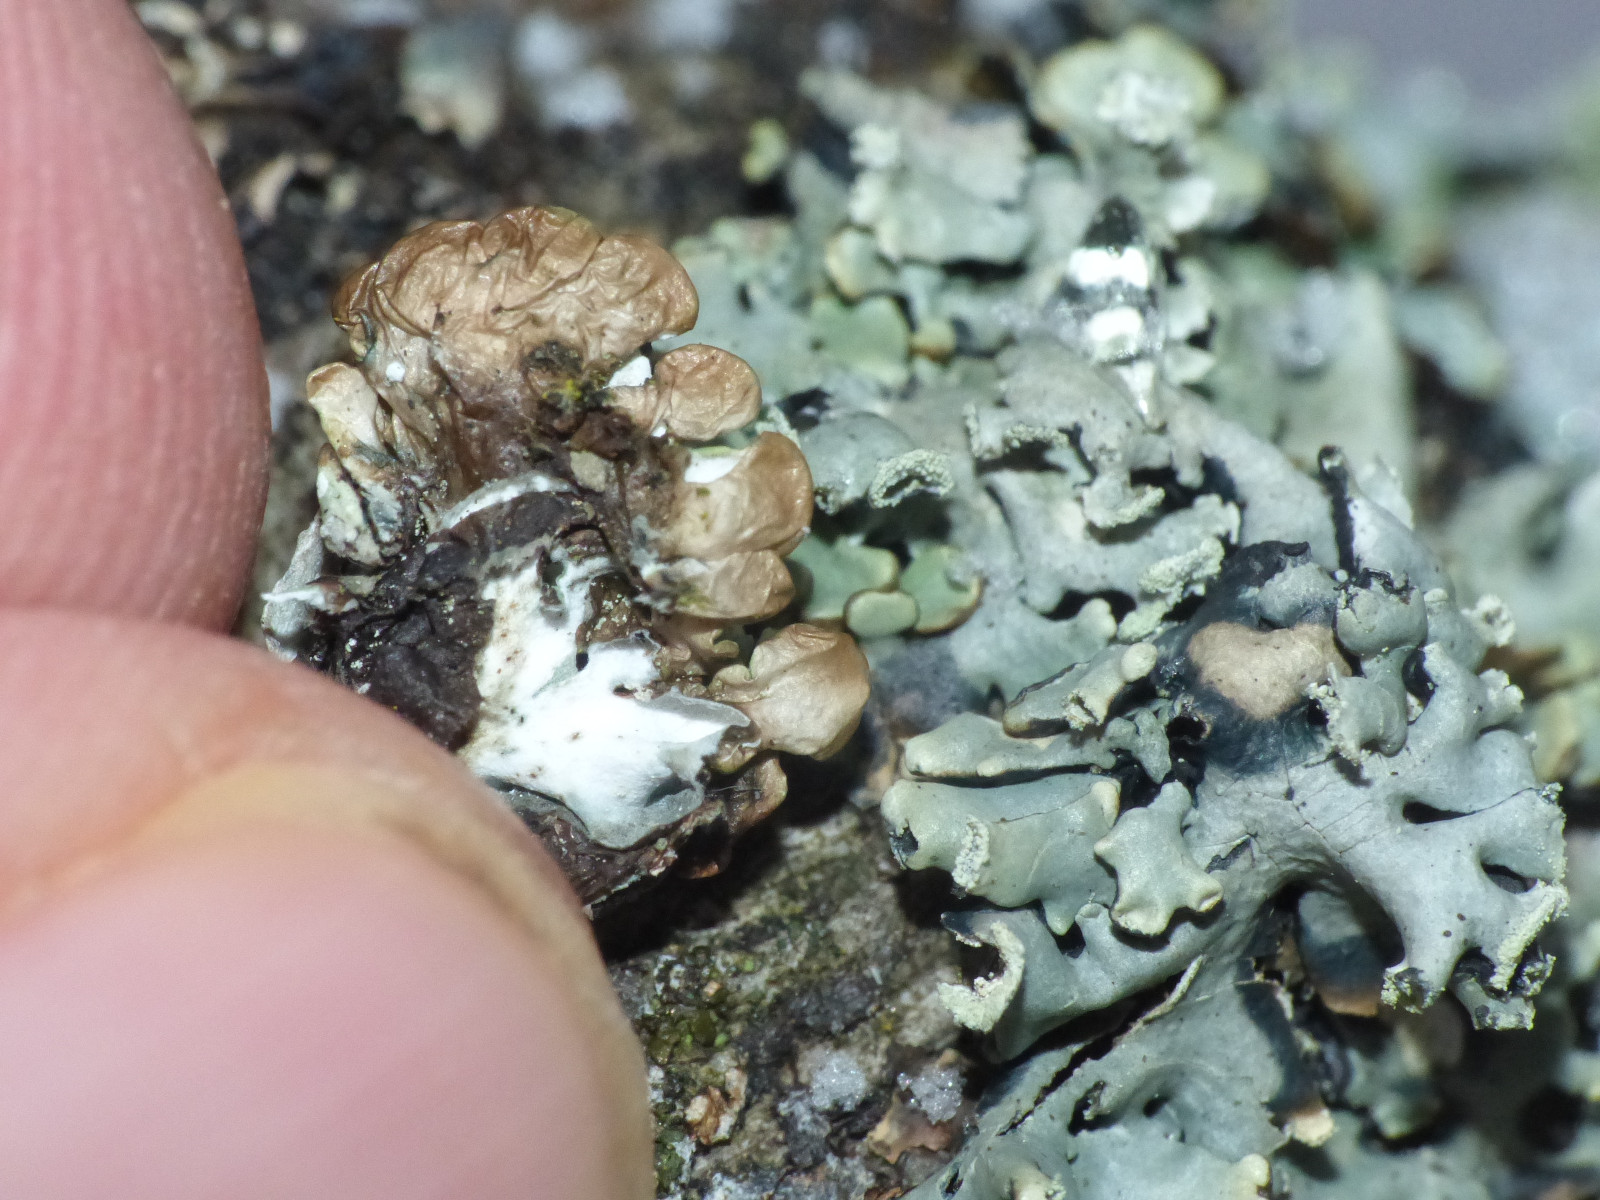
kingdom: Fungi
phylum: Ascomycota
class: Lecanoromycetes
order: Lecanorales
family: Parmeliaceae
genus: Hypogymnia
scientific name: Hypogymnia physodes
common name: almindelig kvistlav
